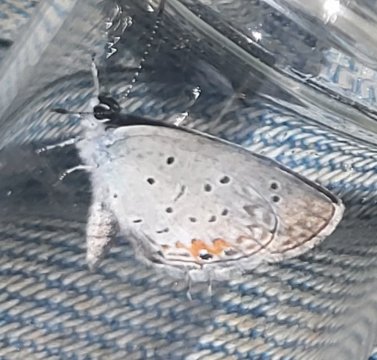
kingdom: Animalia
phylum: Arthropoda
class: Insecta
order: Lepidoptera
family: Lycaenidae
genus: Elkalyce
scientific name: Elkalyce comyntas
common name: Eastern Tailed-Blue
